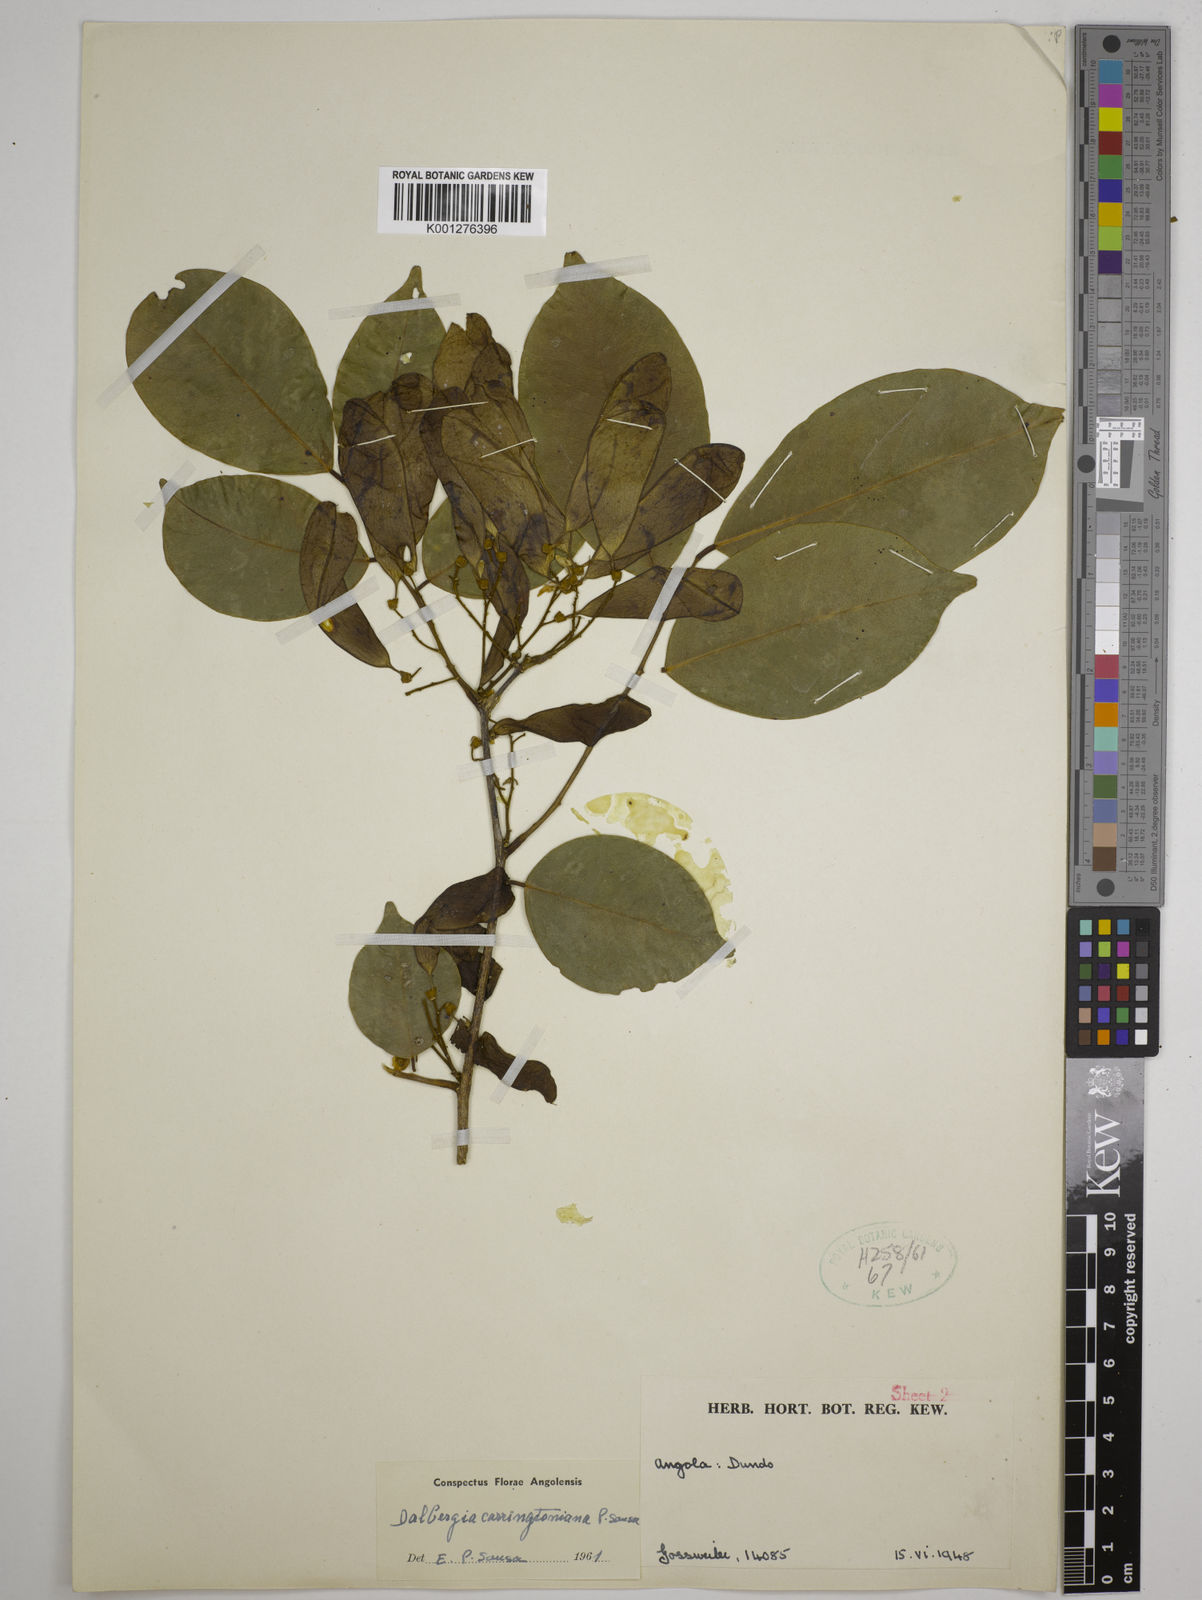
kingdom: Plantae
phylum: Tracheophyta
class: Magnoliopsida
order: Fabales
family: Fabaceae
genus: Dalbergia
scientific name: Dalbergia
